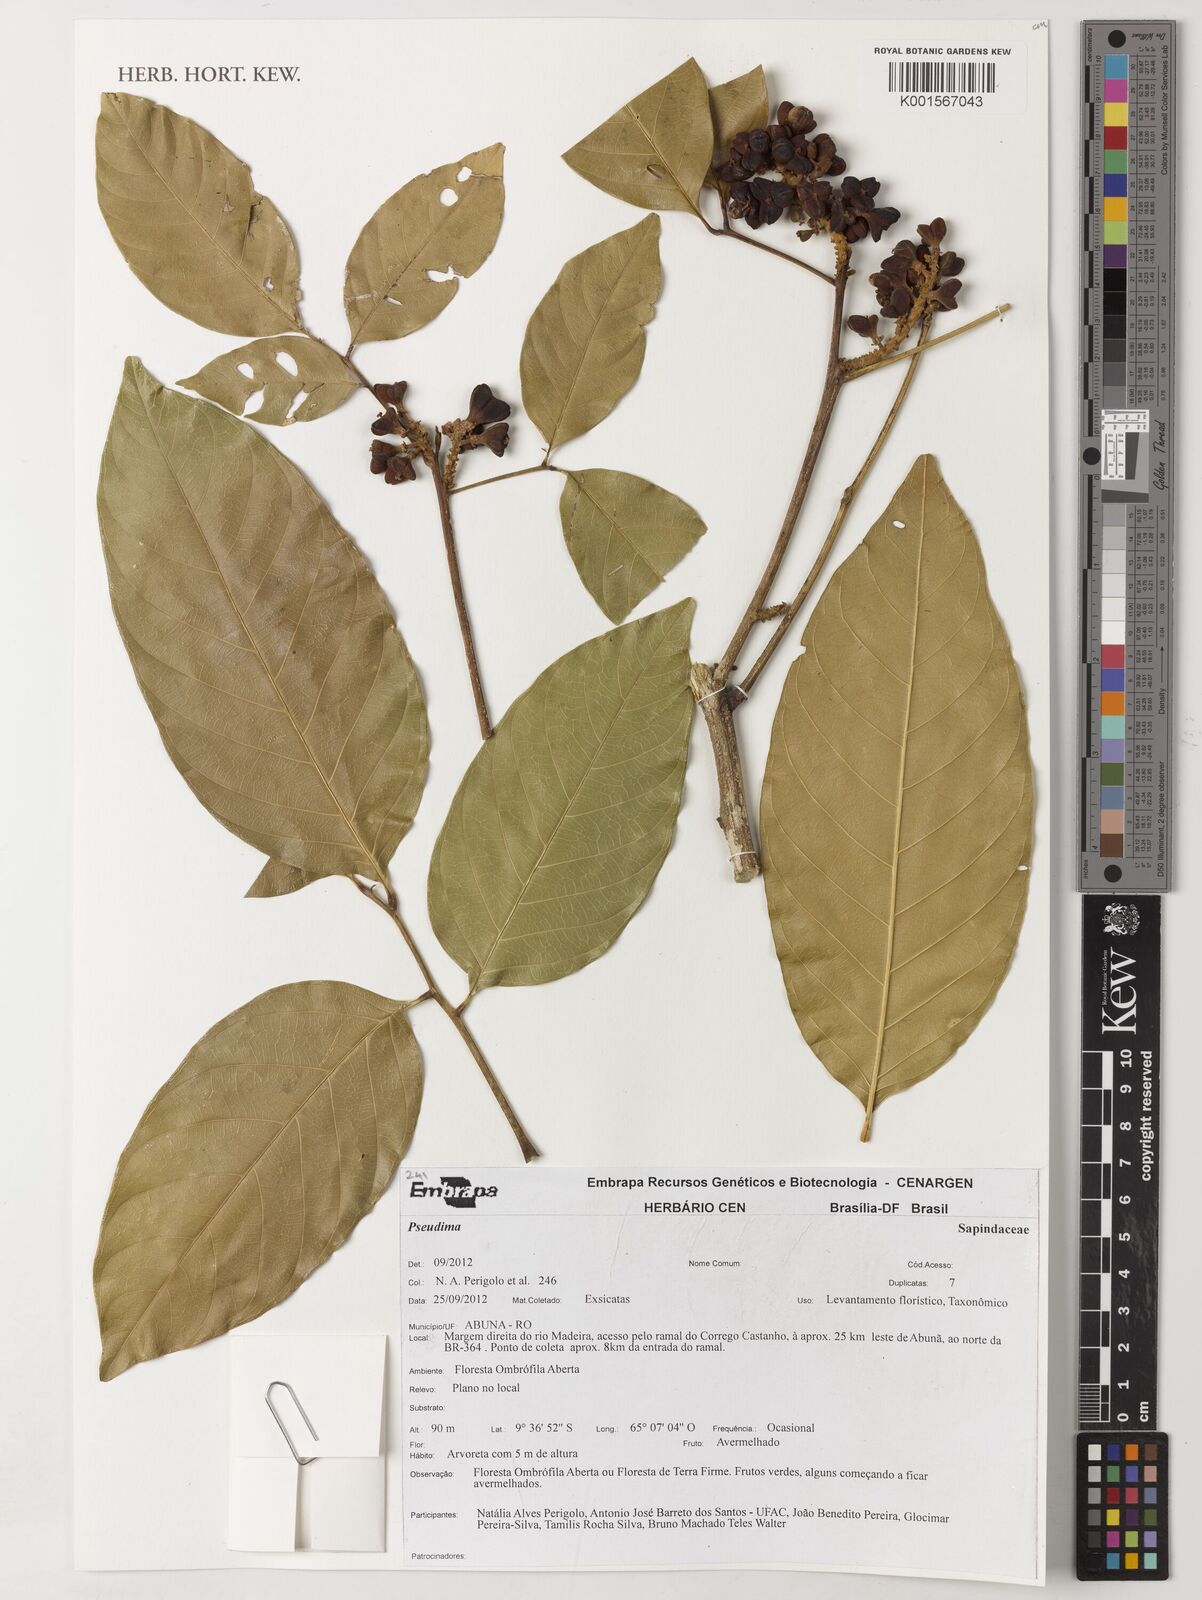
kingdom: Plantae
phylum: Tracheophyta
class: Magnoliopsida
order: Sapindales
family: Sapindaceae
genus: Pseudima
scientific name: Pseudima
